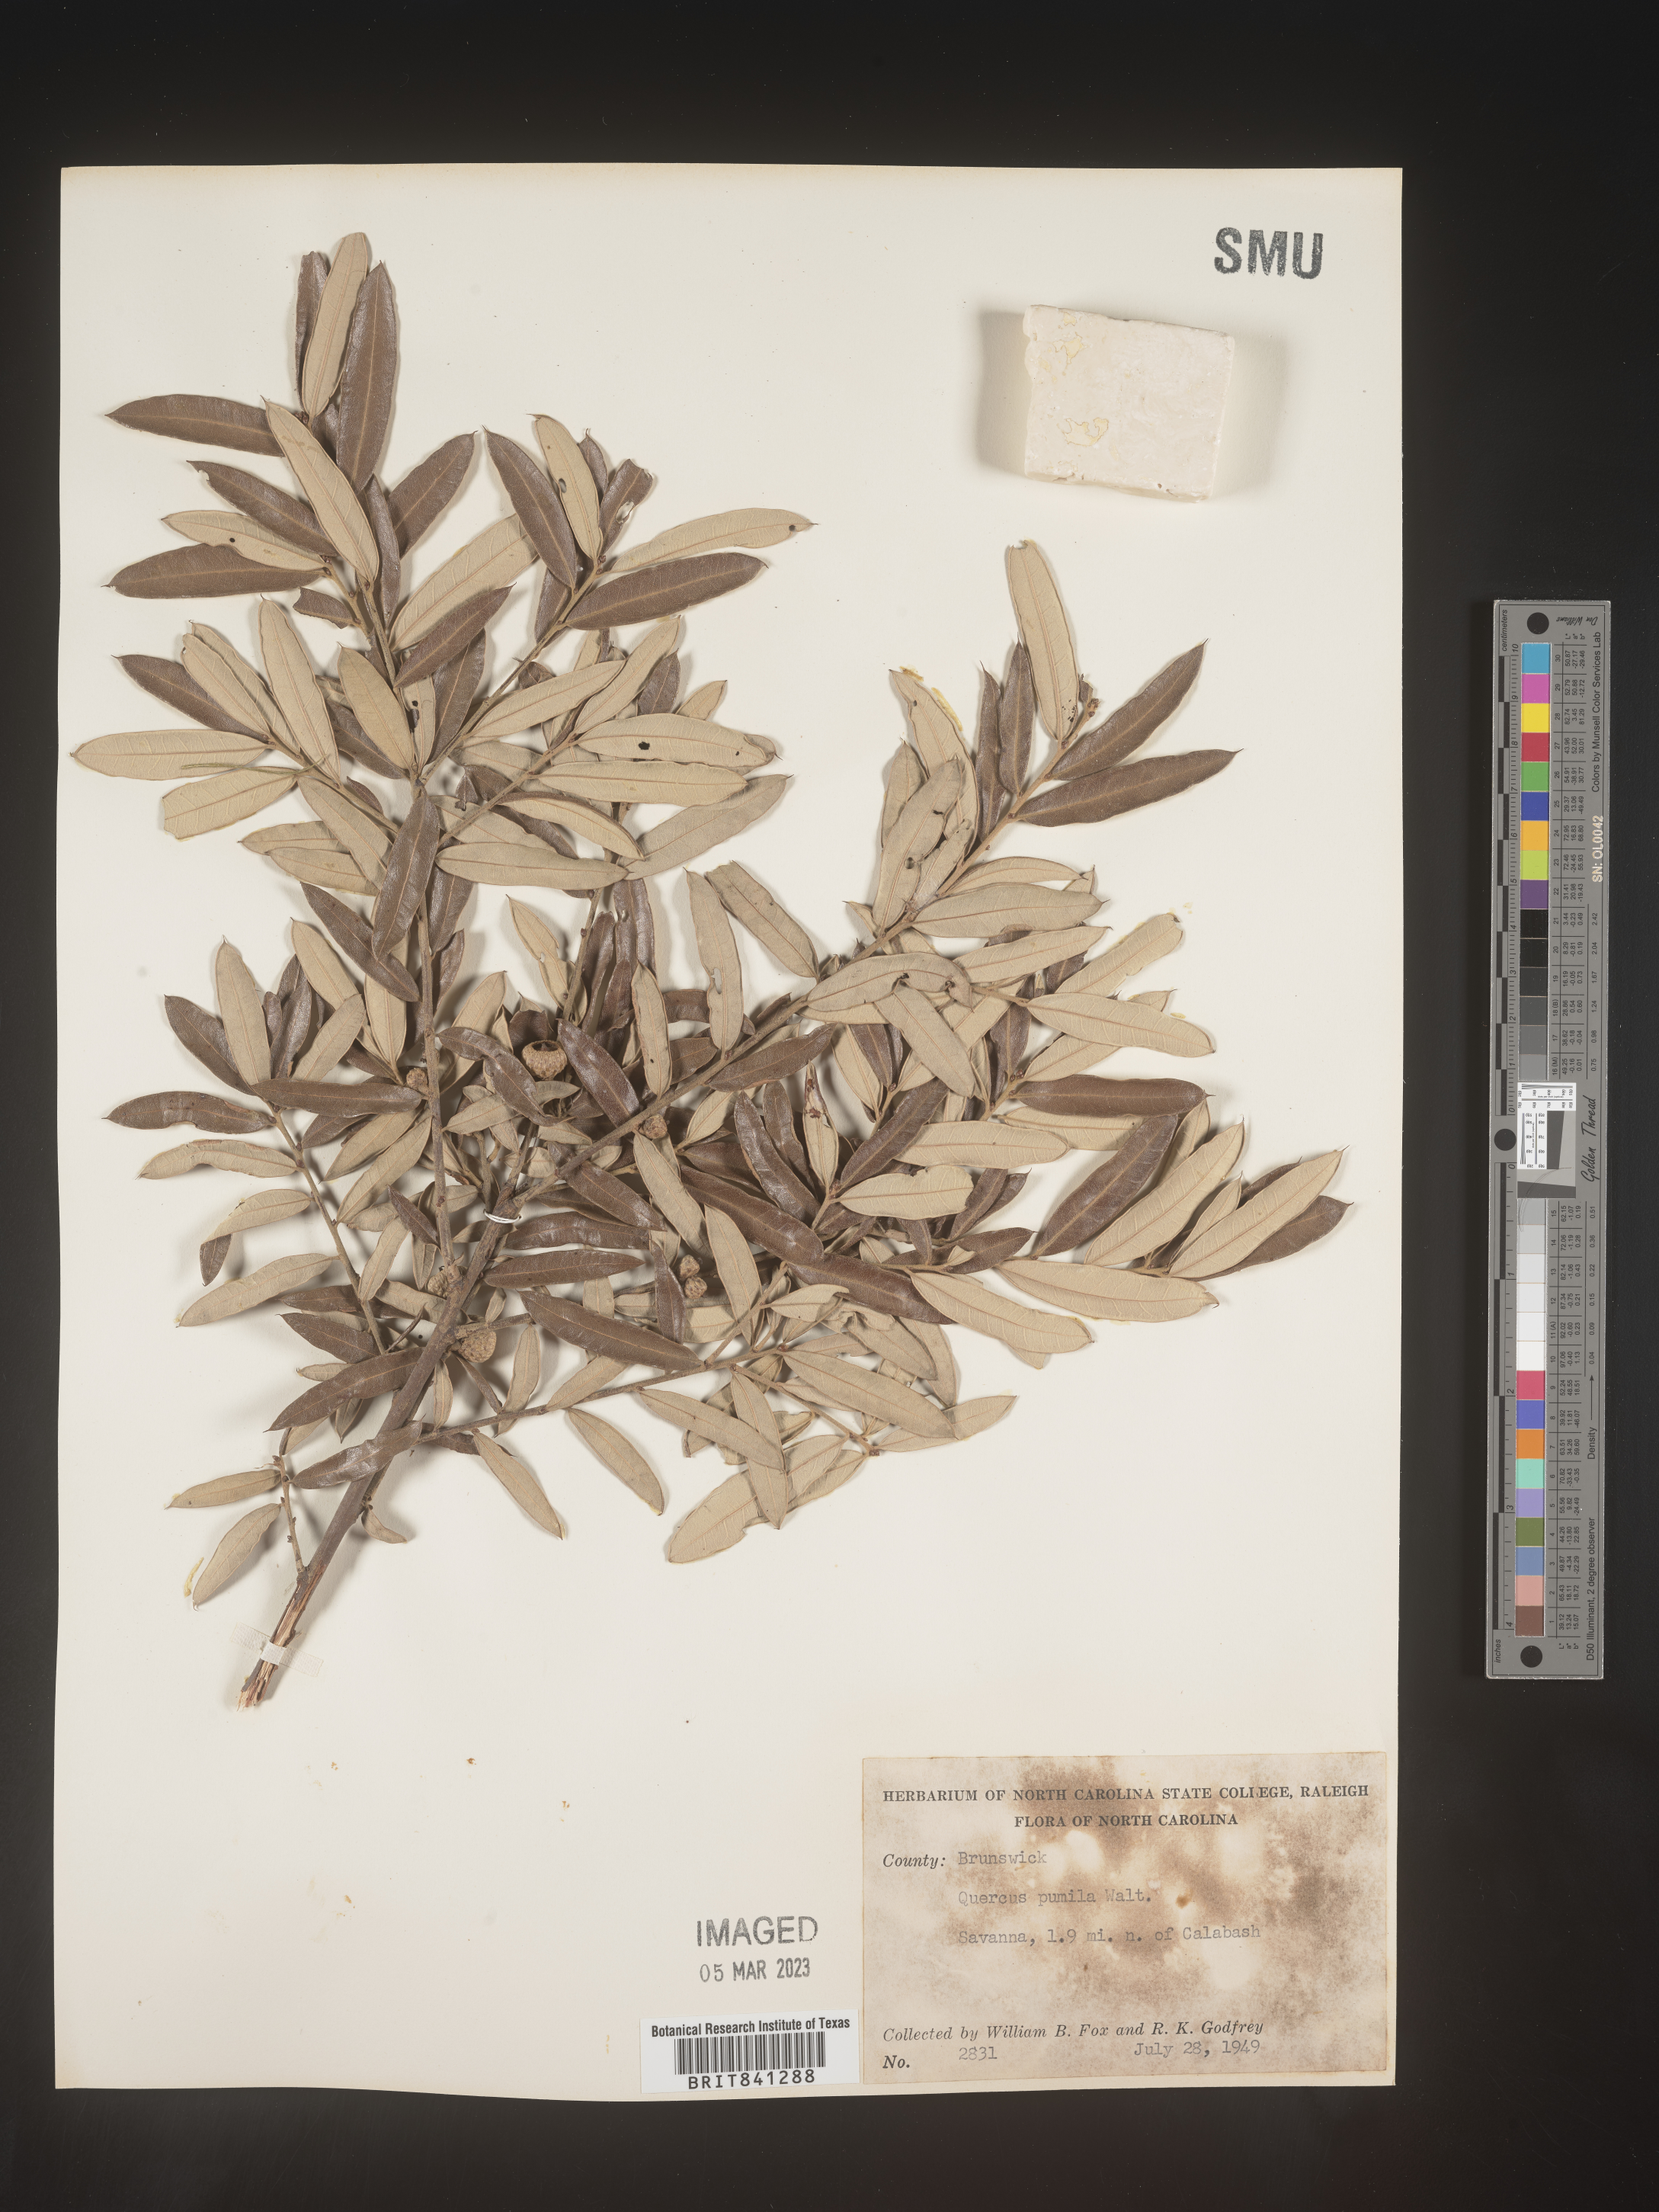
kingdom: Plantae
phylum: Tracheophyta
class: Magnoliopsida
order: Fagales
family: Fagaceae
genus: Quercus
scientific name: Quercus pumila
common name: Runner oak
